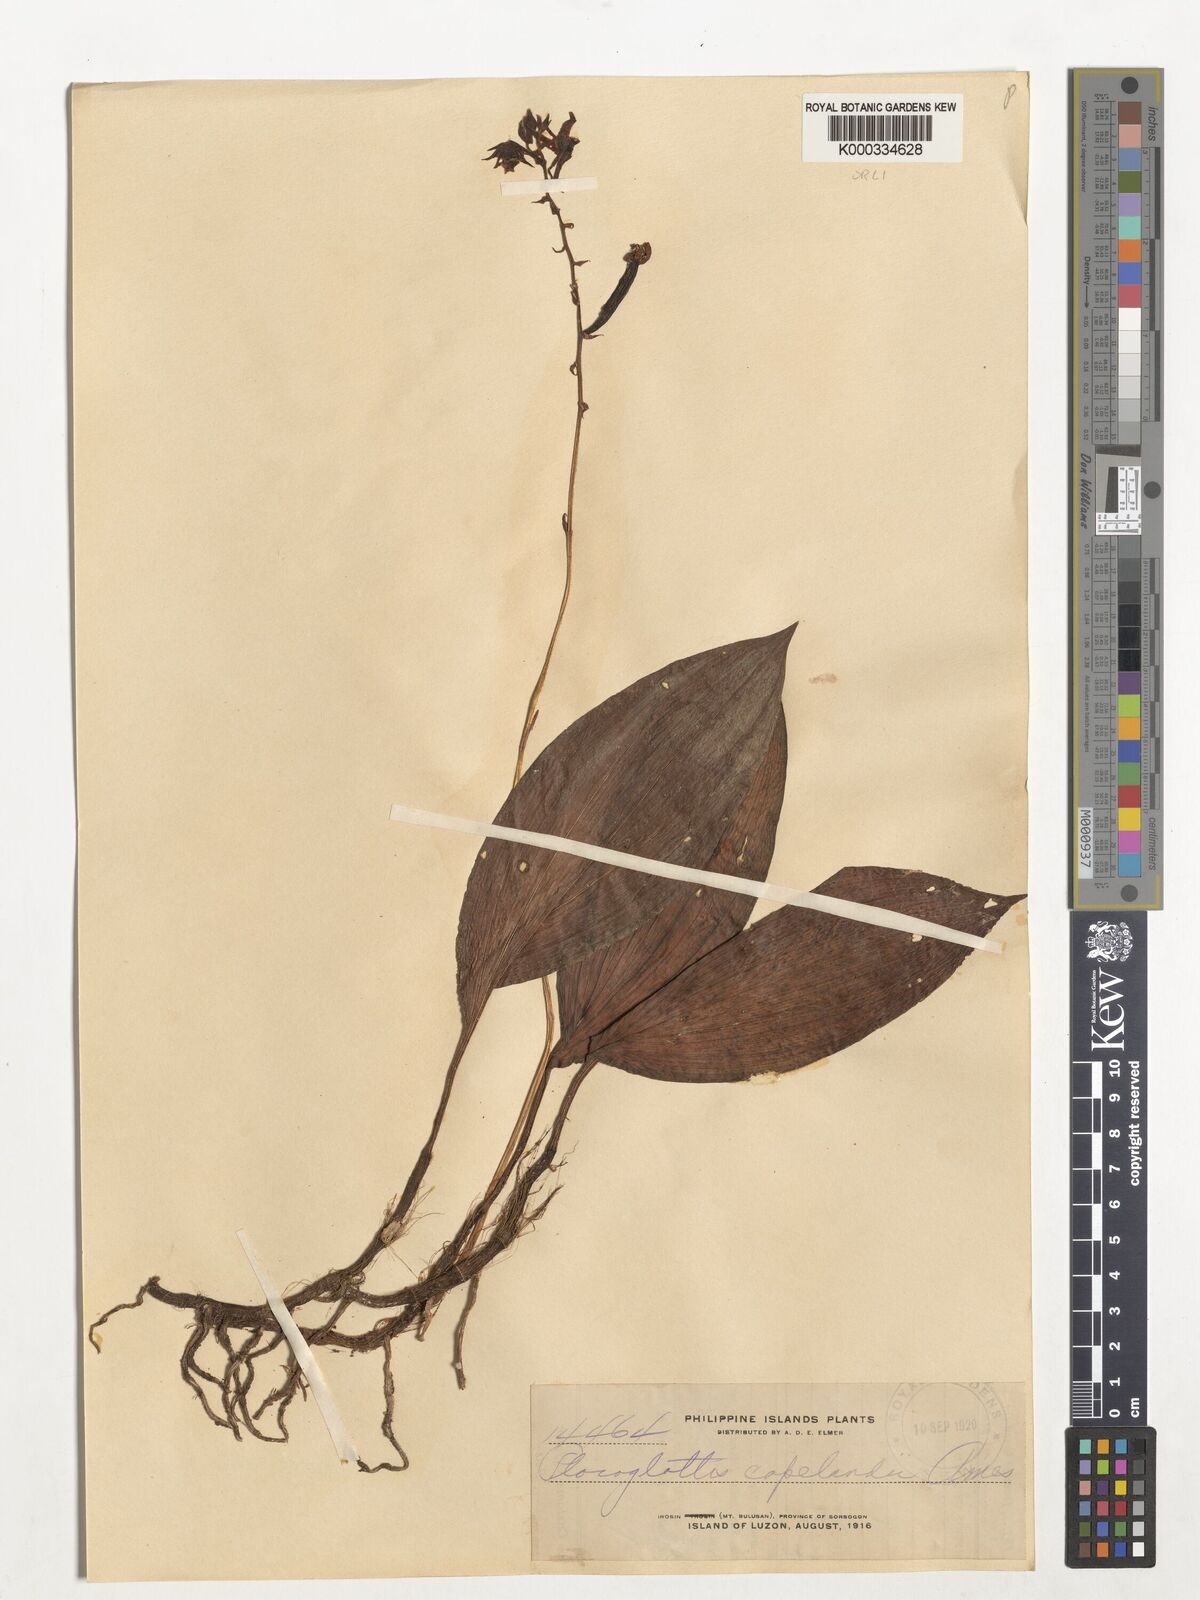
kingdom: Plantae
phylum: Tracheophyta
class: Liliopsida
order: Asparagales
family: Orchidaceae
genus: Plocoglottis
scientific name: Plocoglottis copelandii
